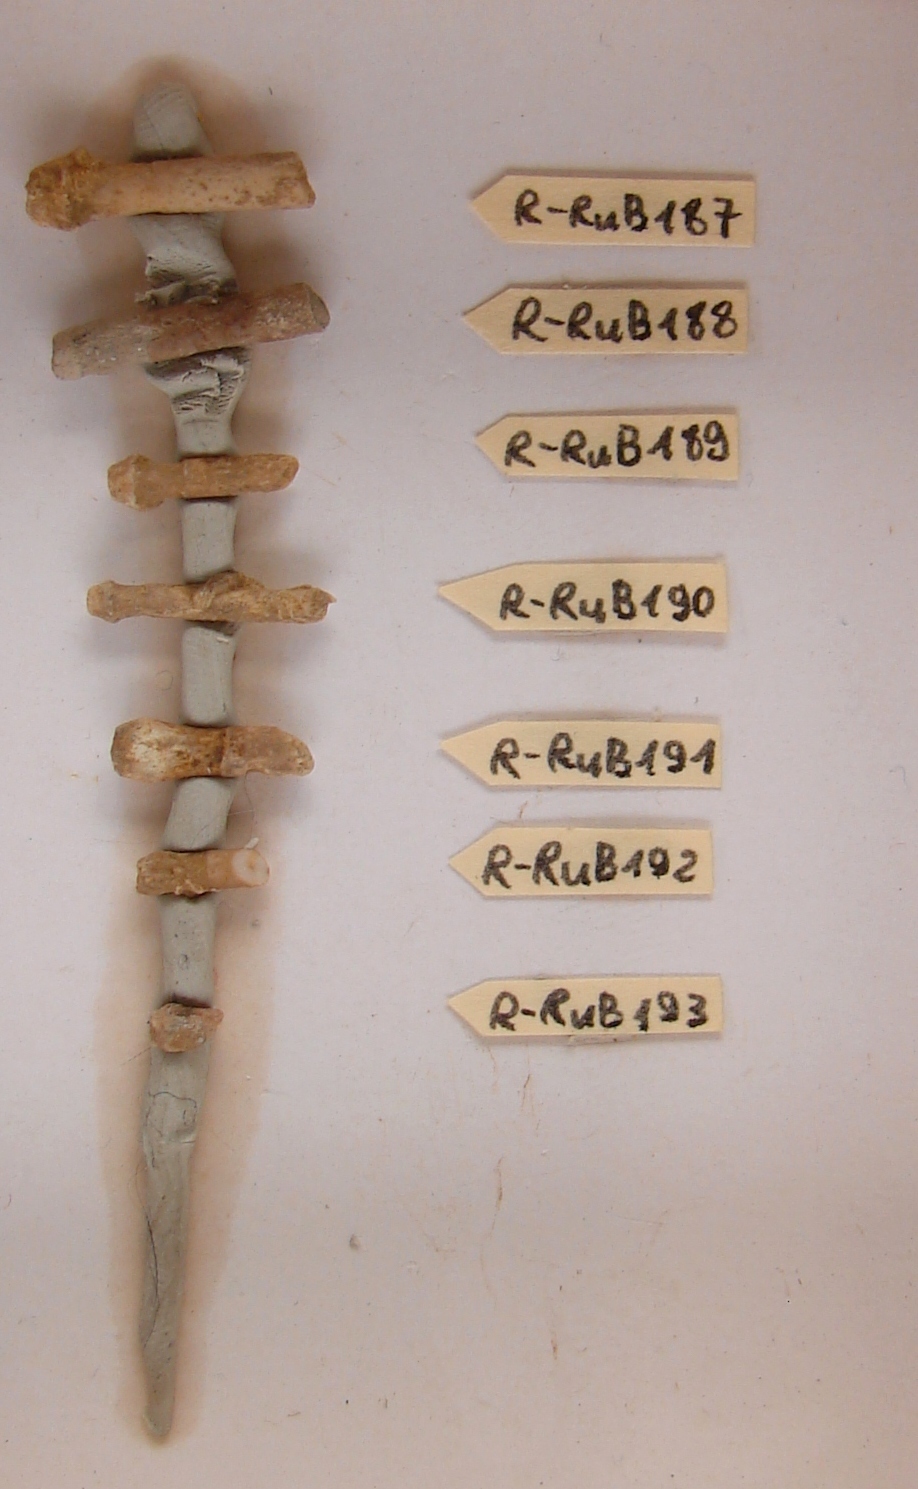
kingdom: Animalia
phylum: Echinodermata
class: Echinoidea
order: Cidaroida
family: Polycidaridae
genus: Polycidaris
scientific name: Polycidaris
